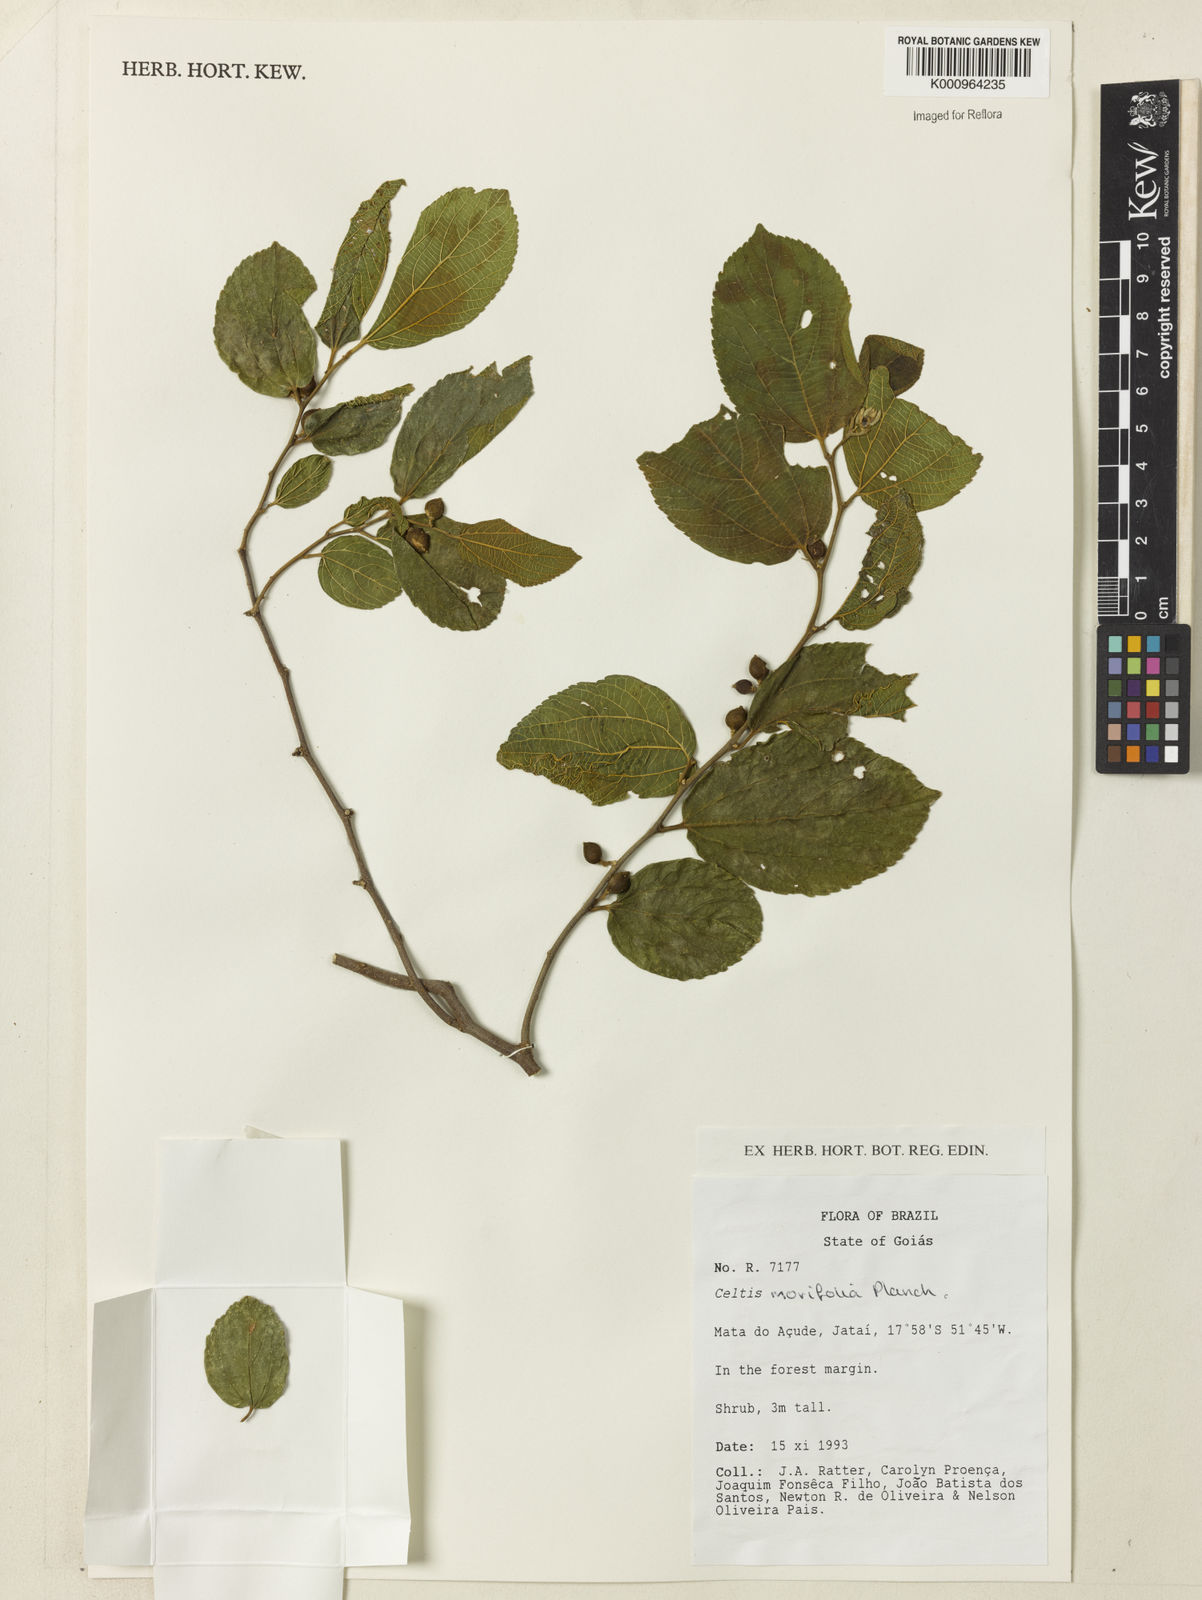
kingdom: Plantae
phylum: Tracheophyta
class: Magnoliopsida
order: Rosales
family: Cannabaceae
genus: Celtis
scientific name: Celtis iguanaea
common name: Iguana hackberry
